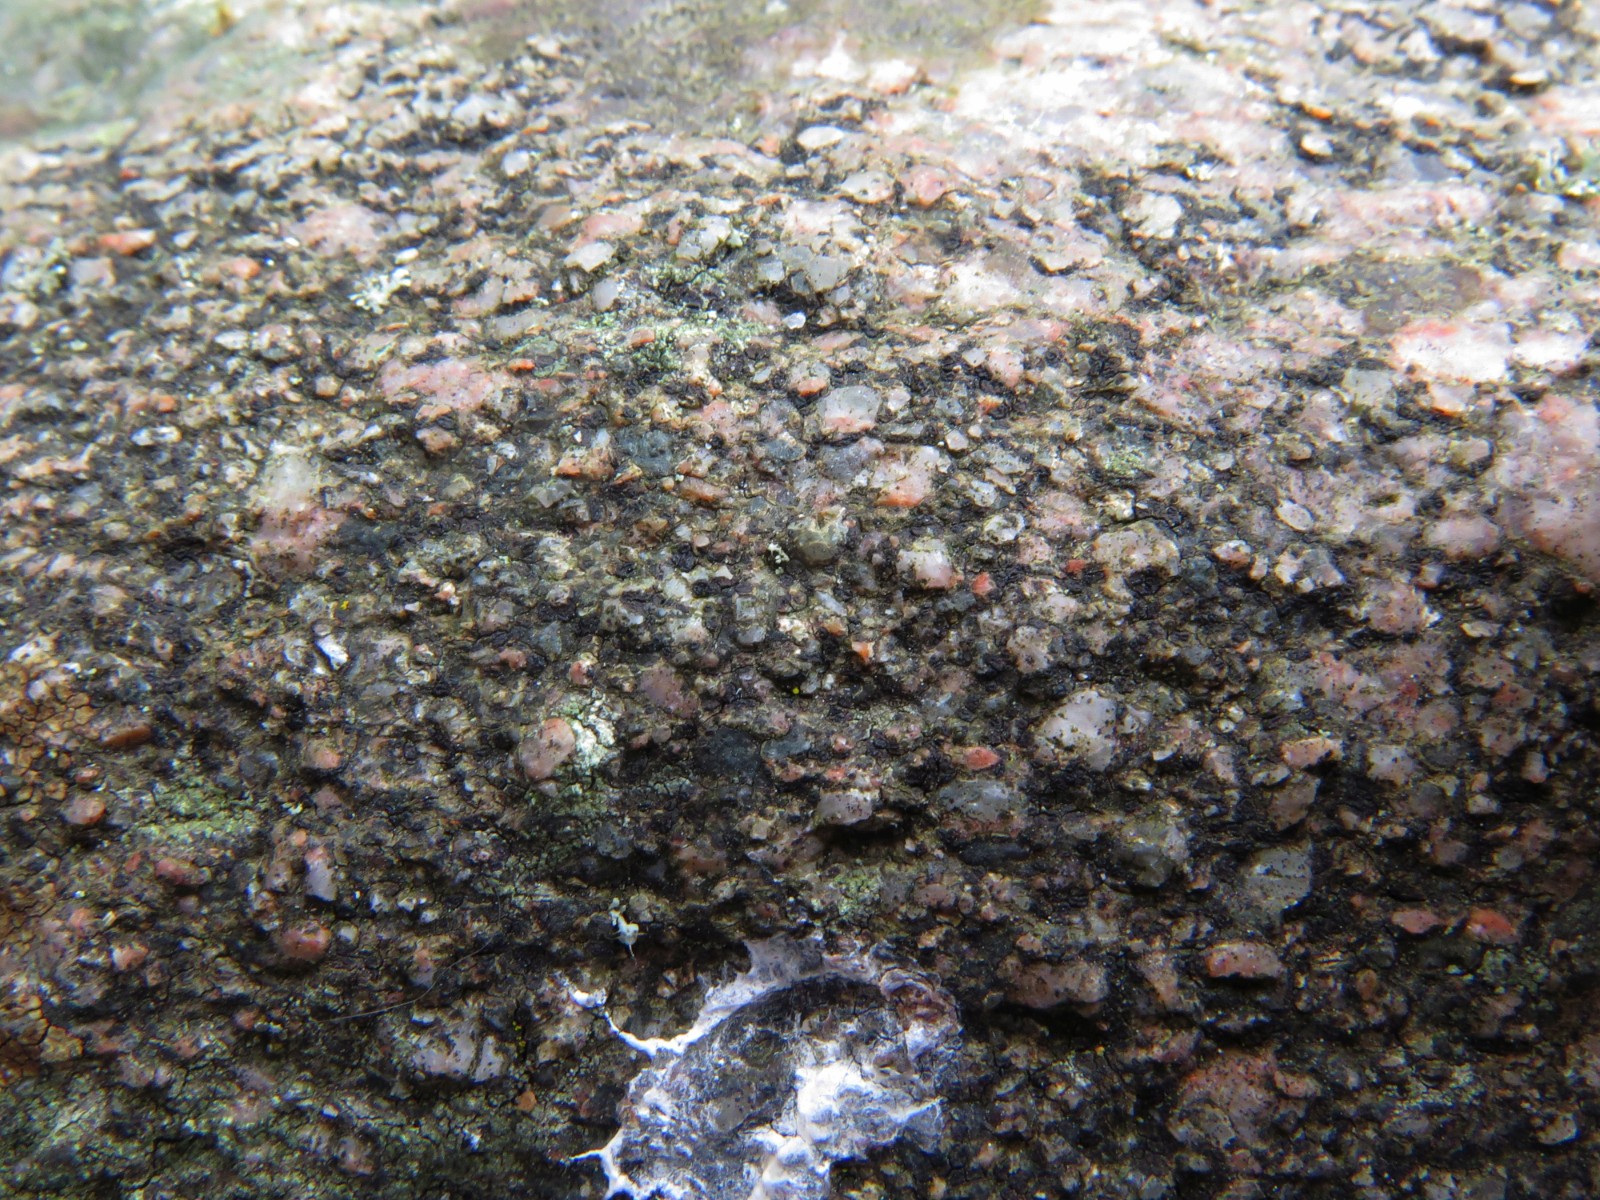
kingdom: Fungi
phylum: Ascomycota
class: Lecanoromycetes
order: Acarosporales
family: Acarosporaceae
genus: Acarospora
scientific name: Acarospora privigna
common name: sort foldekantlav
